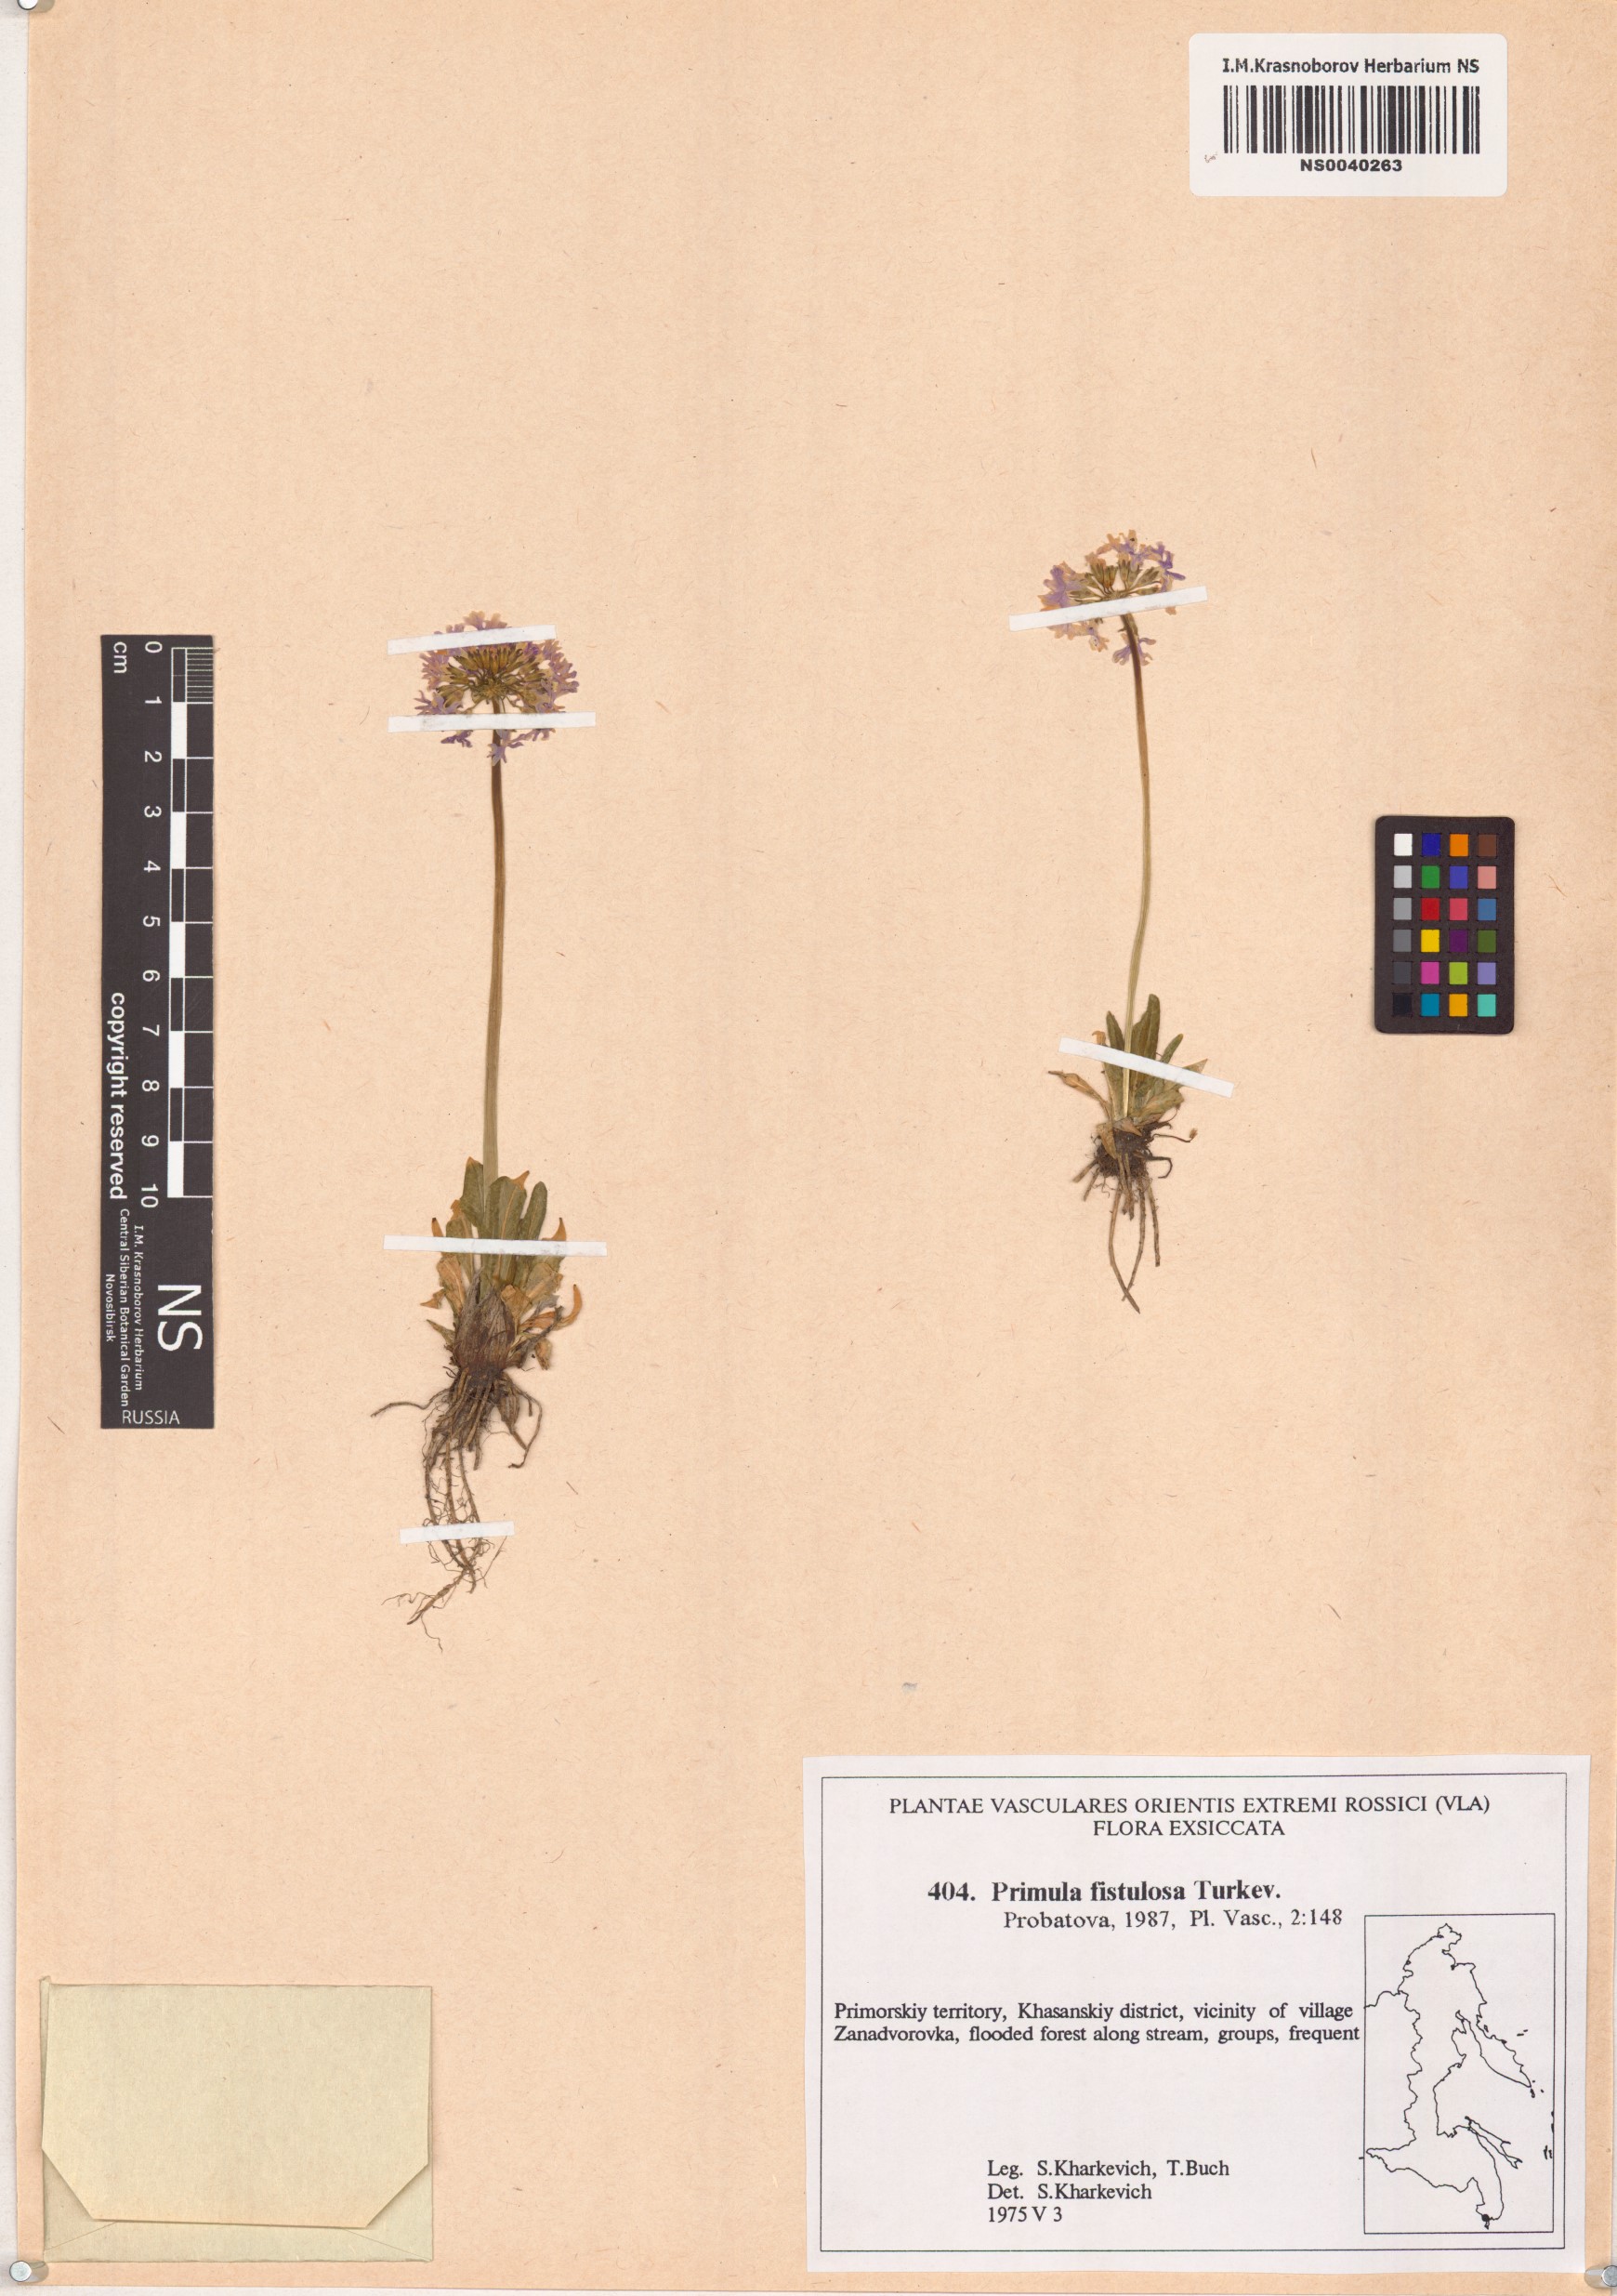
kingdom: Plantae
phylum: Tracheophyta
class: Magnoliopsida
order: Ericales
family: Primulaceae
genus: Primula
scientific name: Primula fistulosa
